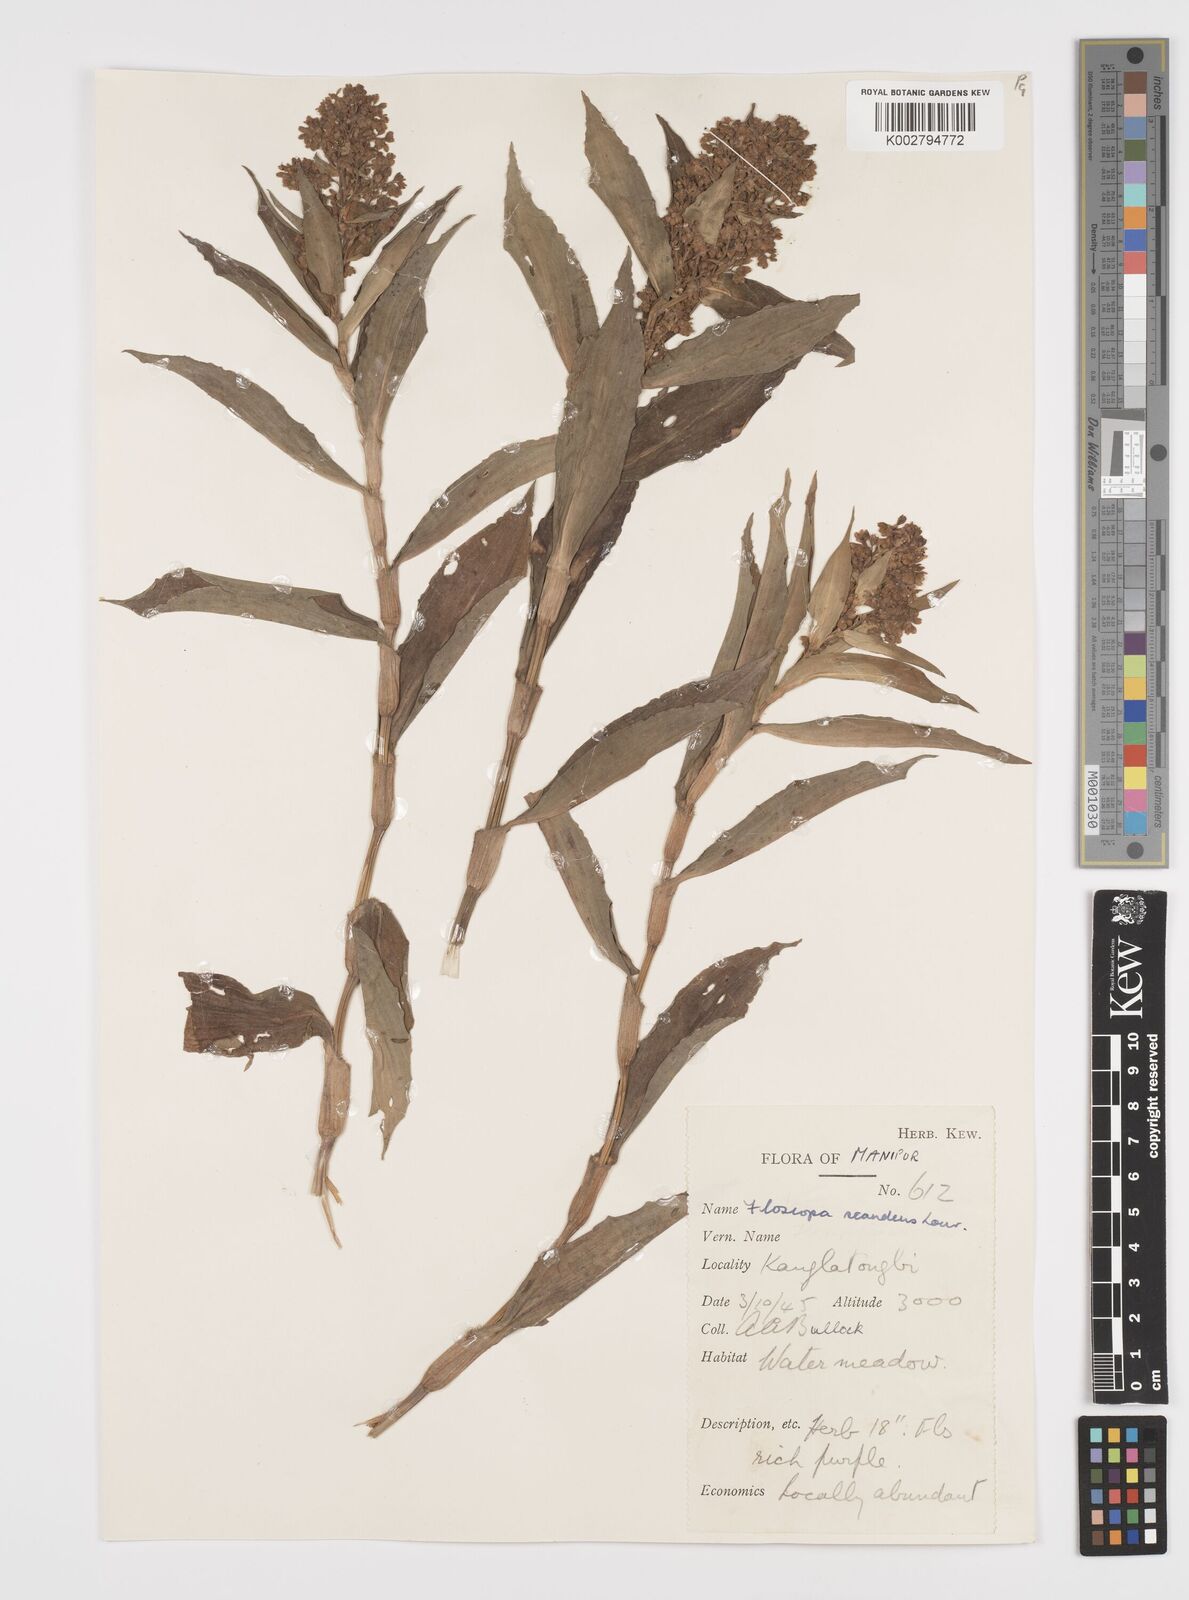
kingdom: Plantae
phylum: Tracheophyta
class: Liliopsida
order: Commelinales
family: Commelinaceae
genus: Floscopa
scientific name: Floscopa scandens
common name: Climbing flower cup
